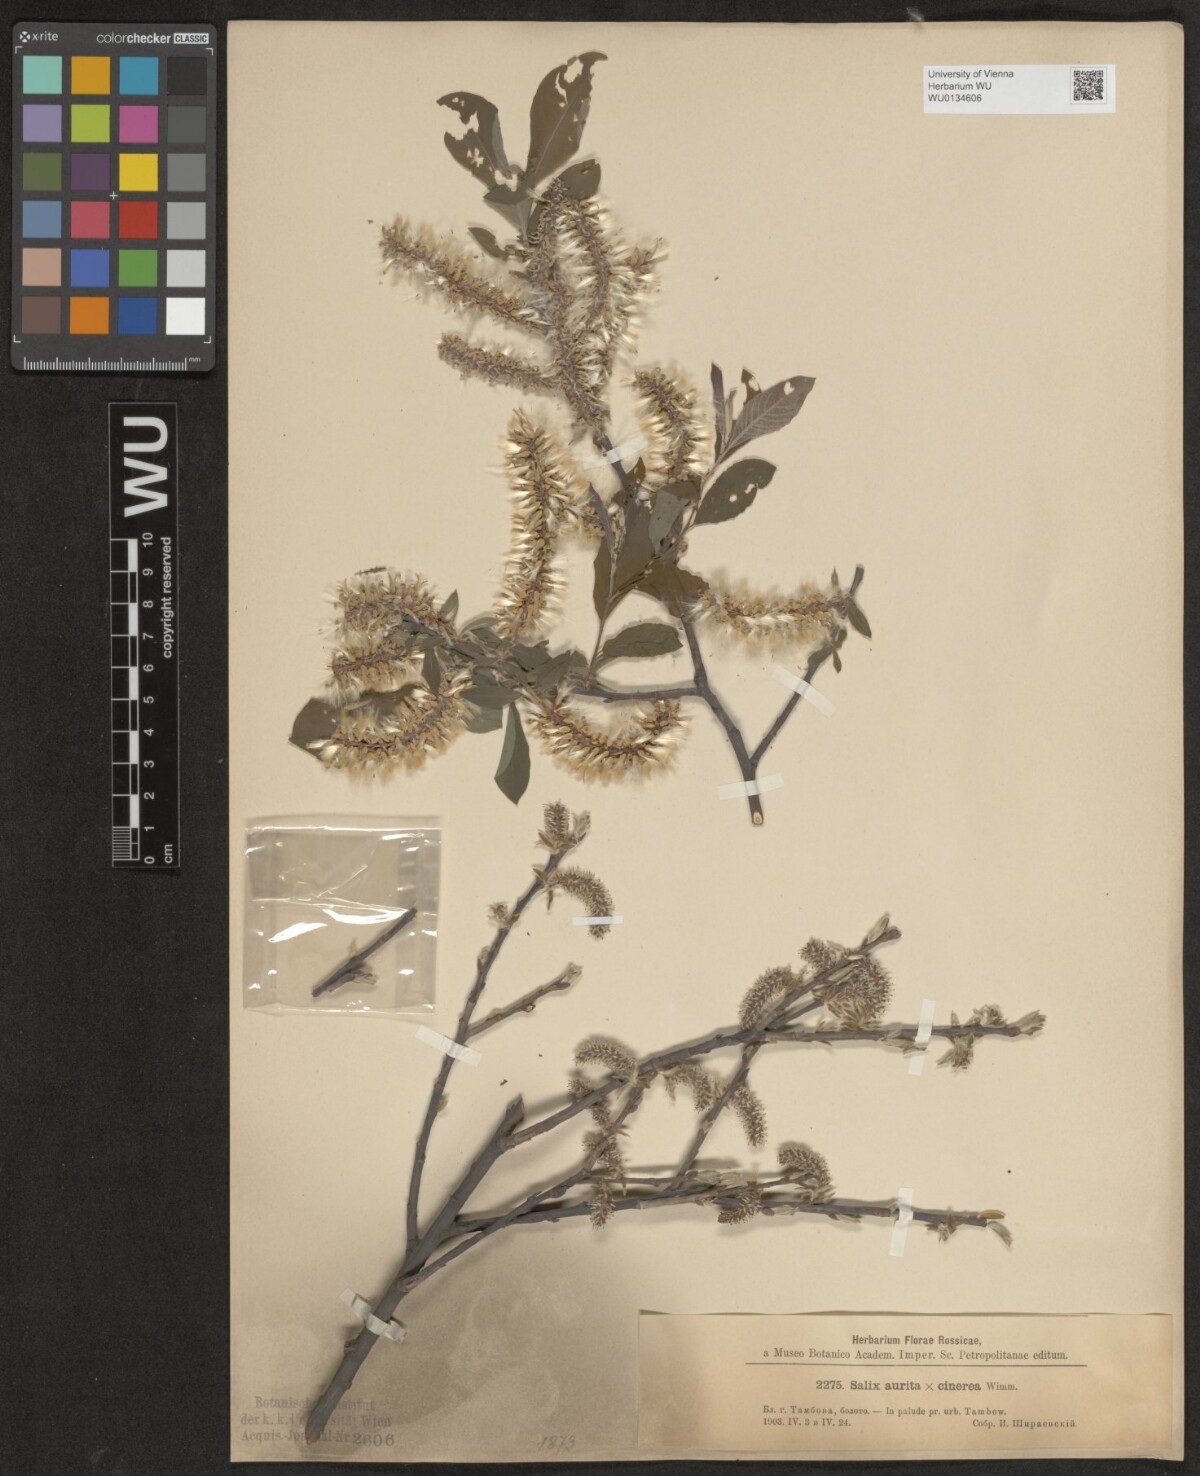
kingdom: Plantae
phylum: Tracheophyta
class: Magnoliopsida
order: Malpighiales
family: Salicaceae
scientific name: Salicaceae
